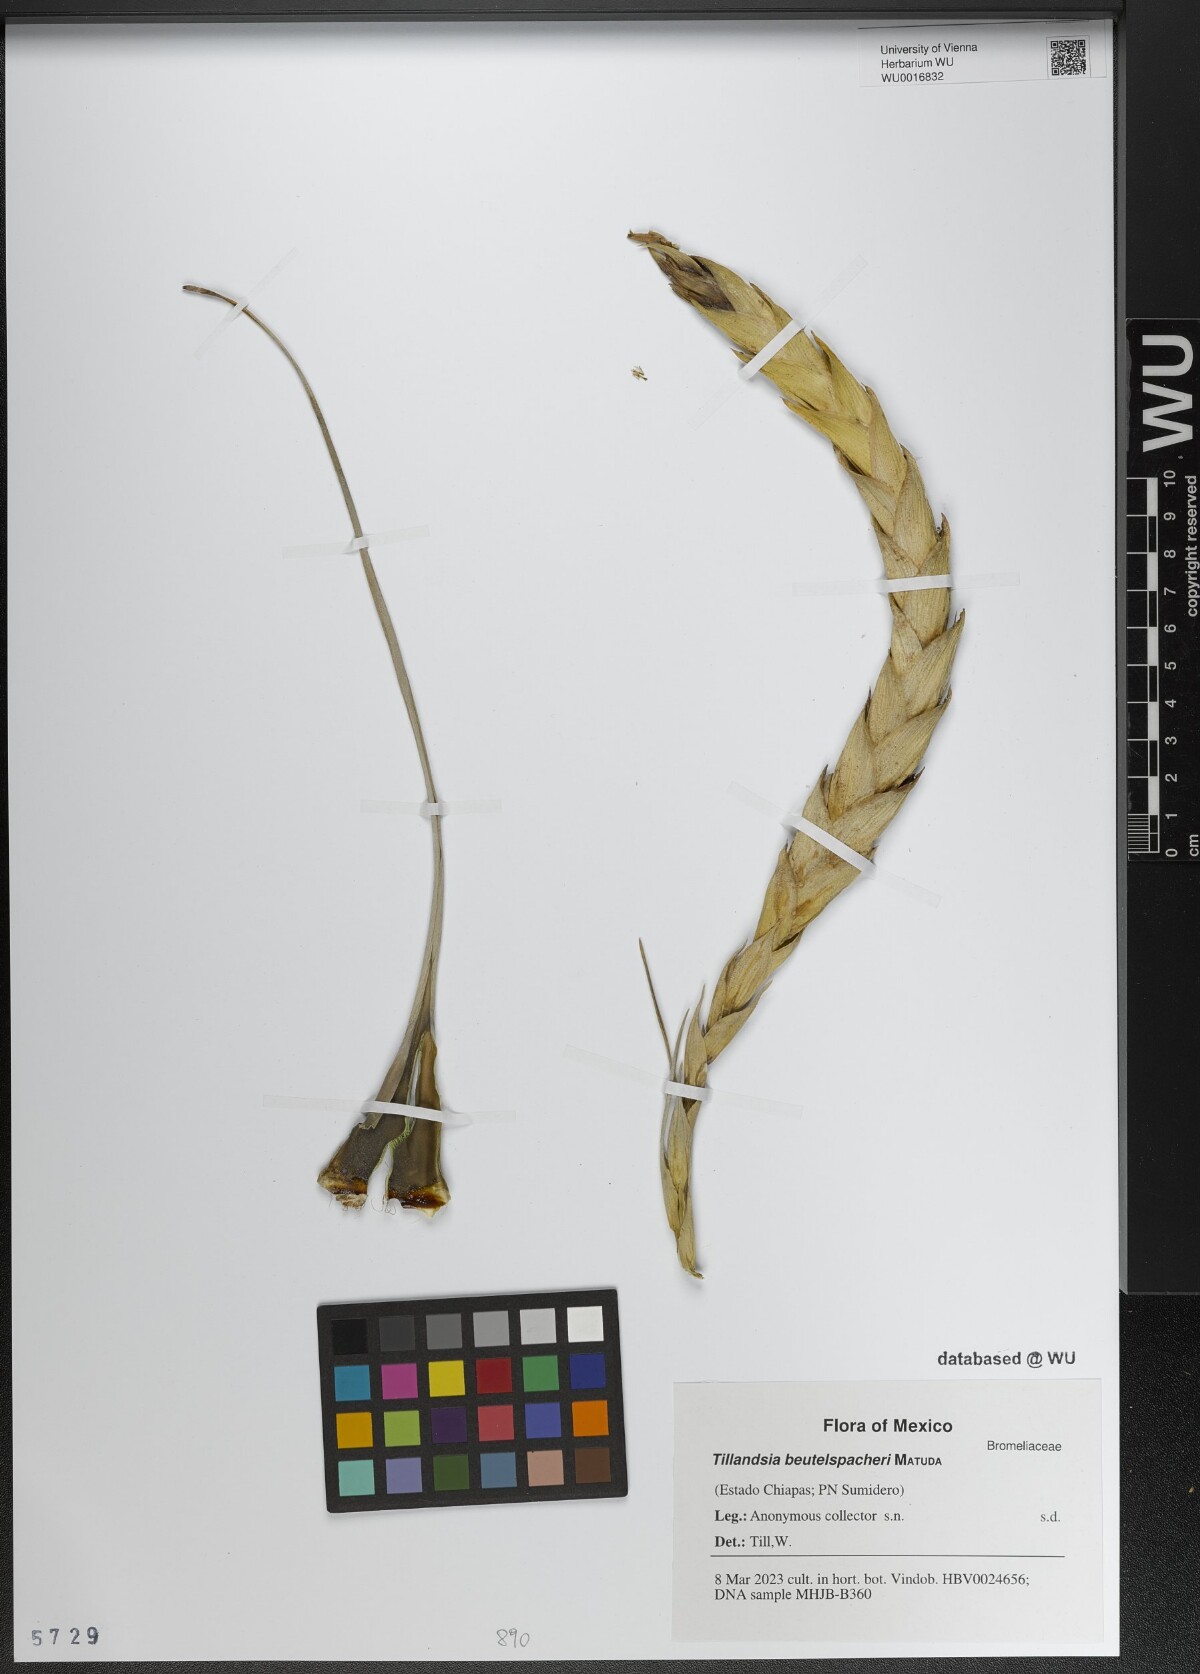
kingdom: Plantae
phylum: Tracheophyta
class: Liliopsida
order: Poales
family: Bromeliaceae
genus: Tillandsia
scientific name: Tillandsia fasciculata
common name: Giant airplant
